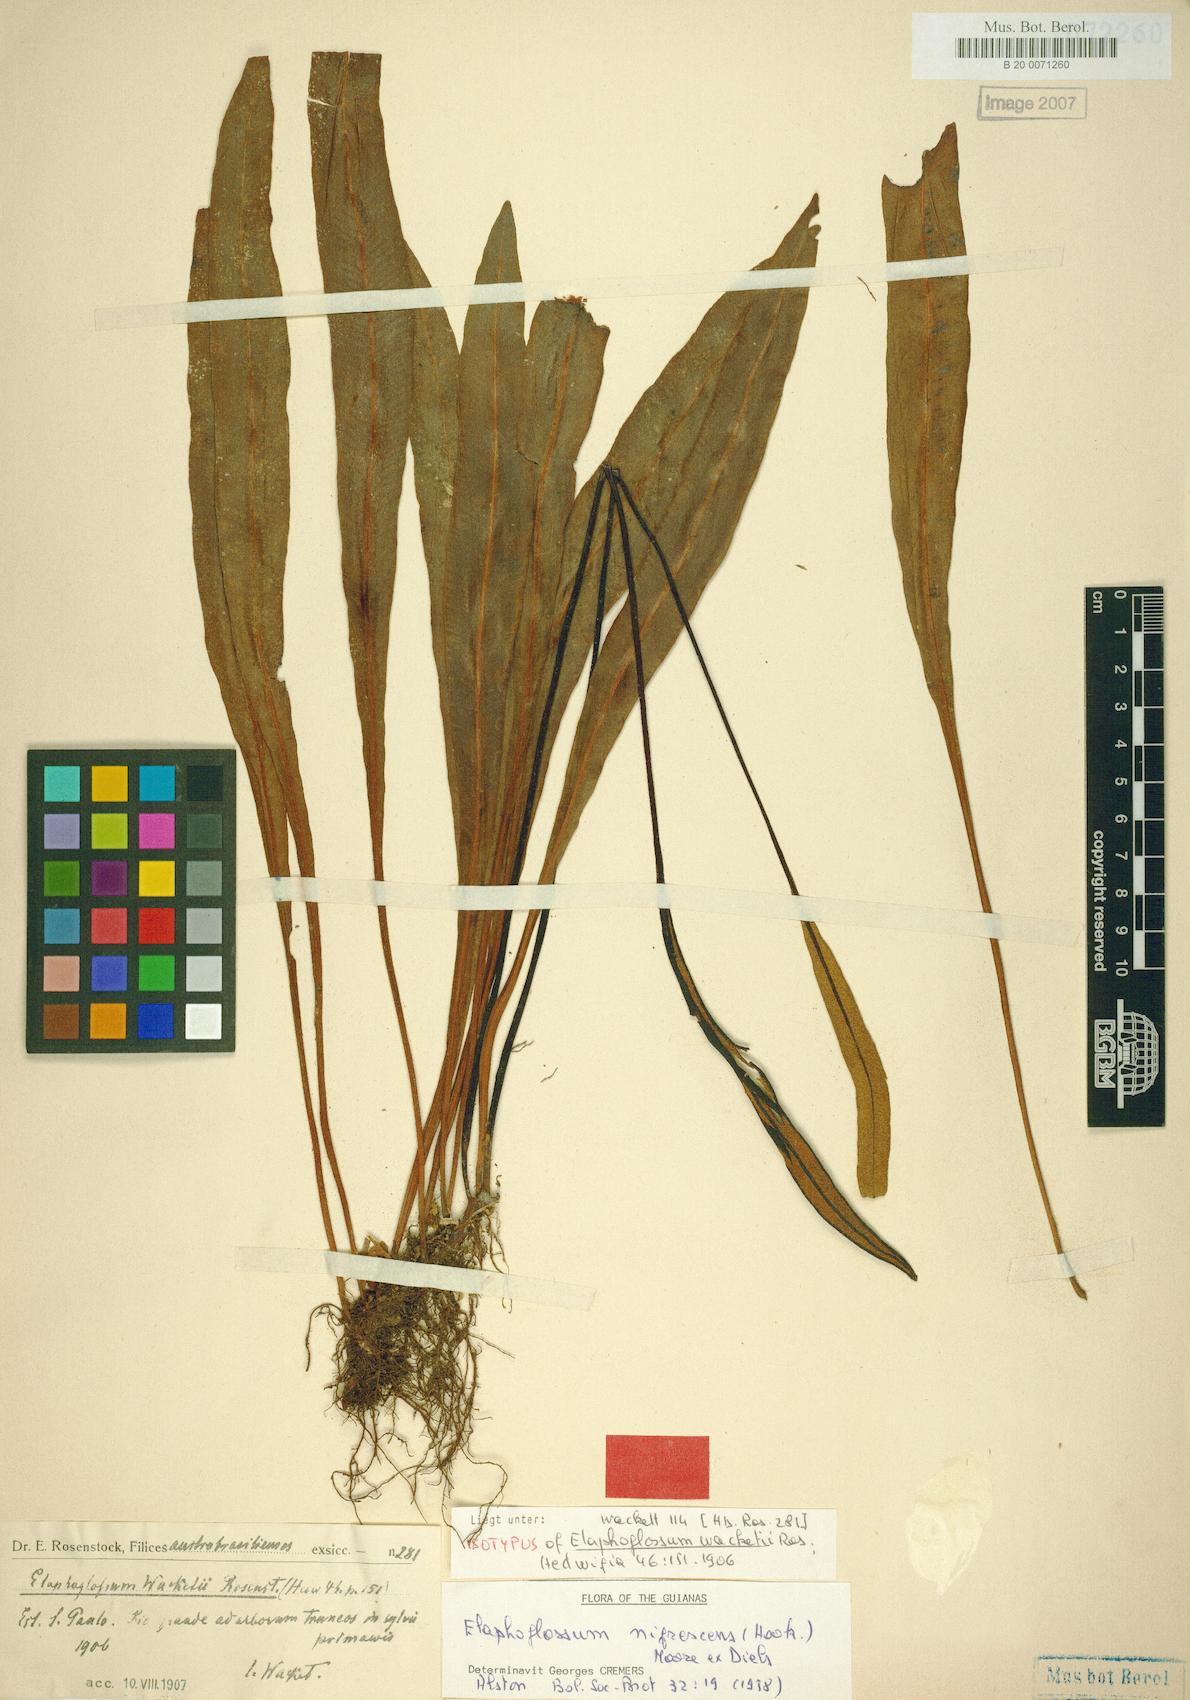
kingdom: Plantae
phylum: Tracheophyta
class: Polypodiopsida
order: Polypodiales
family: Dryopteridaceae
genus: Elaphoglossum
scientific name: Elaphoglossum nigrescens
